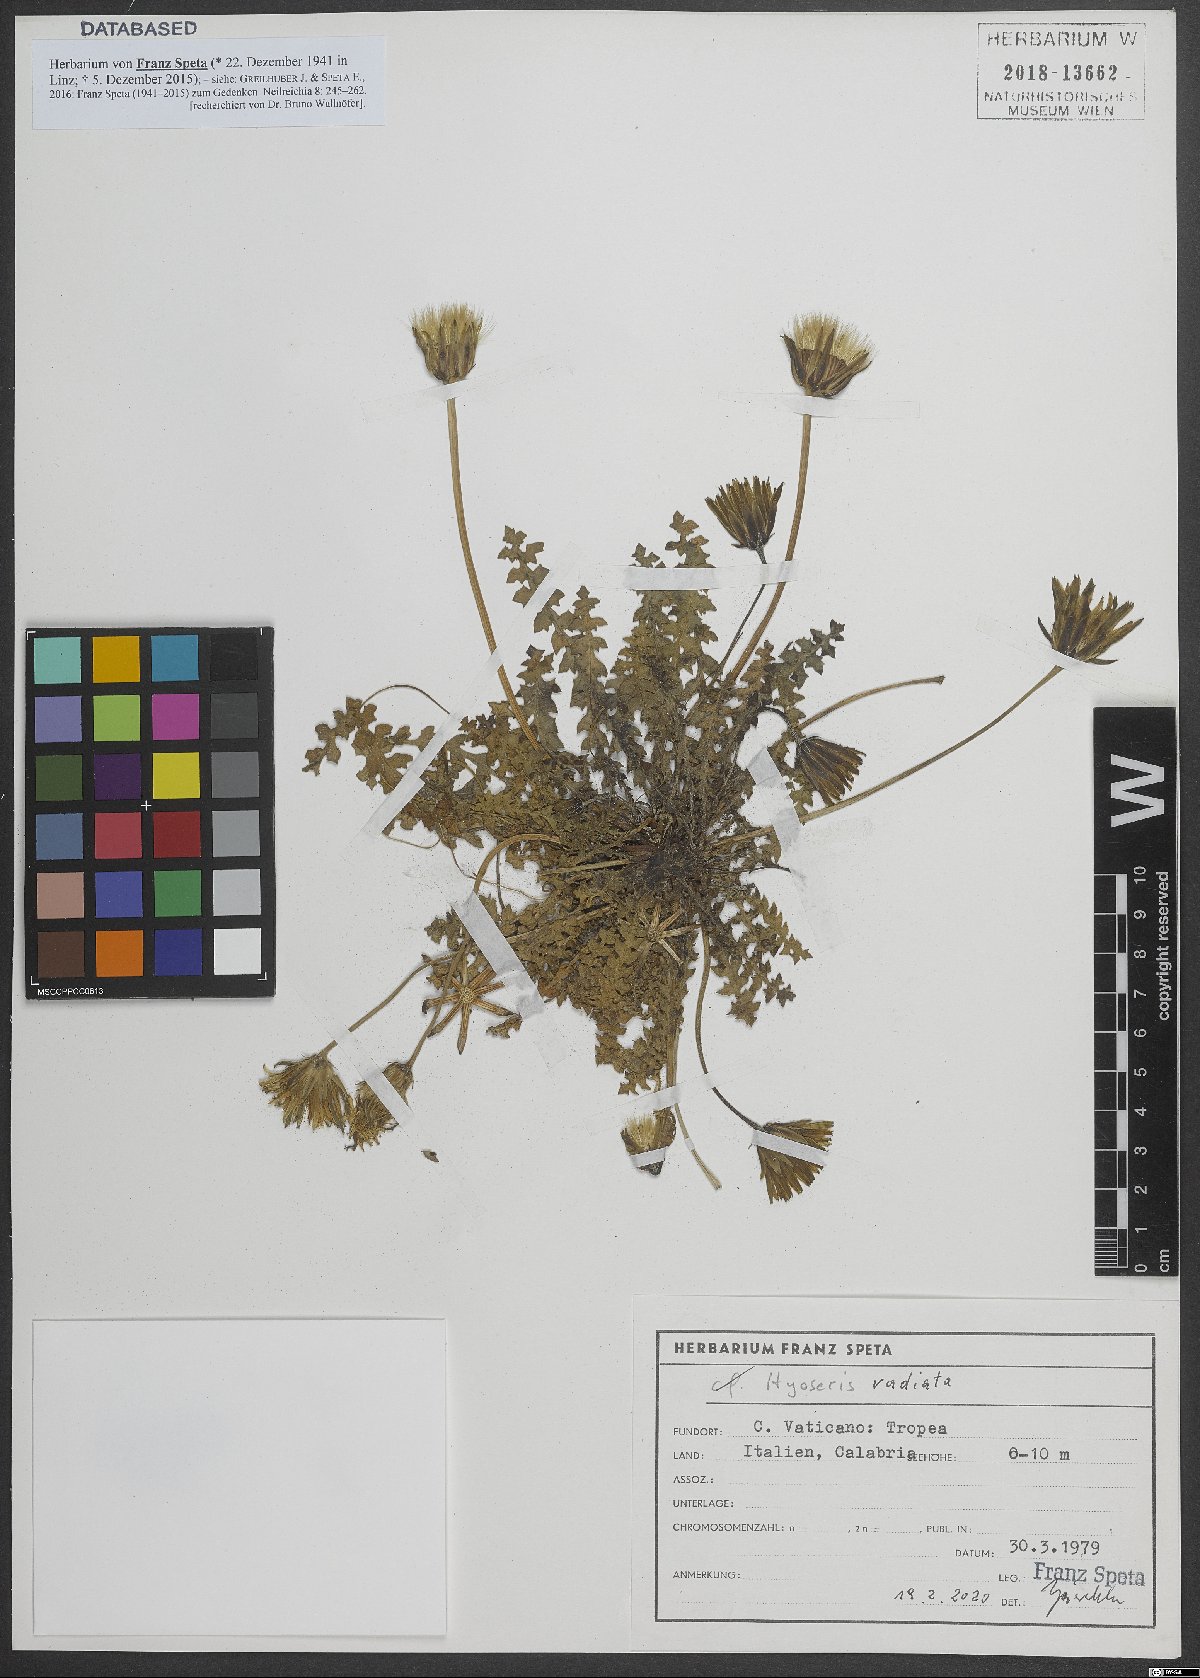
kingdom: Plantae
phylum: Tracheophyta
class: Magnoliopsida
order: Asterales
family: Asteraceae
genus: Hyoseris
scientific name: Hyoseris radiata
